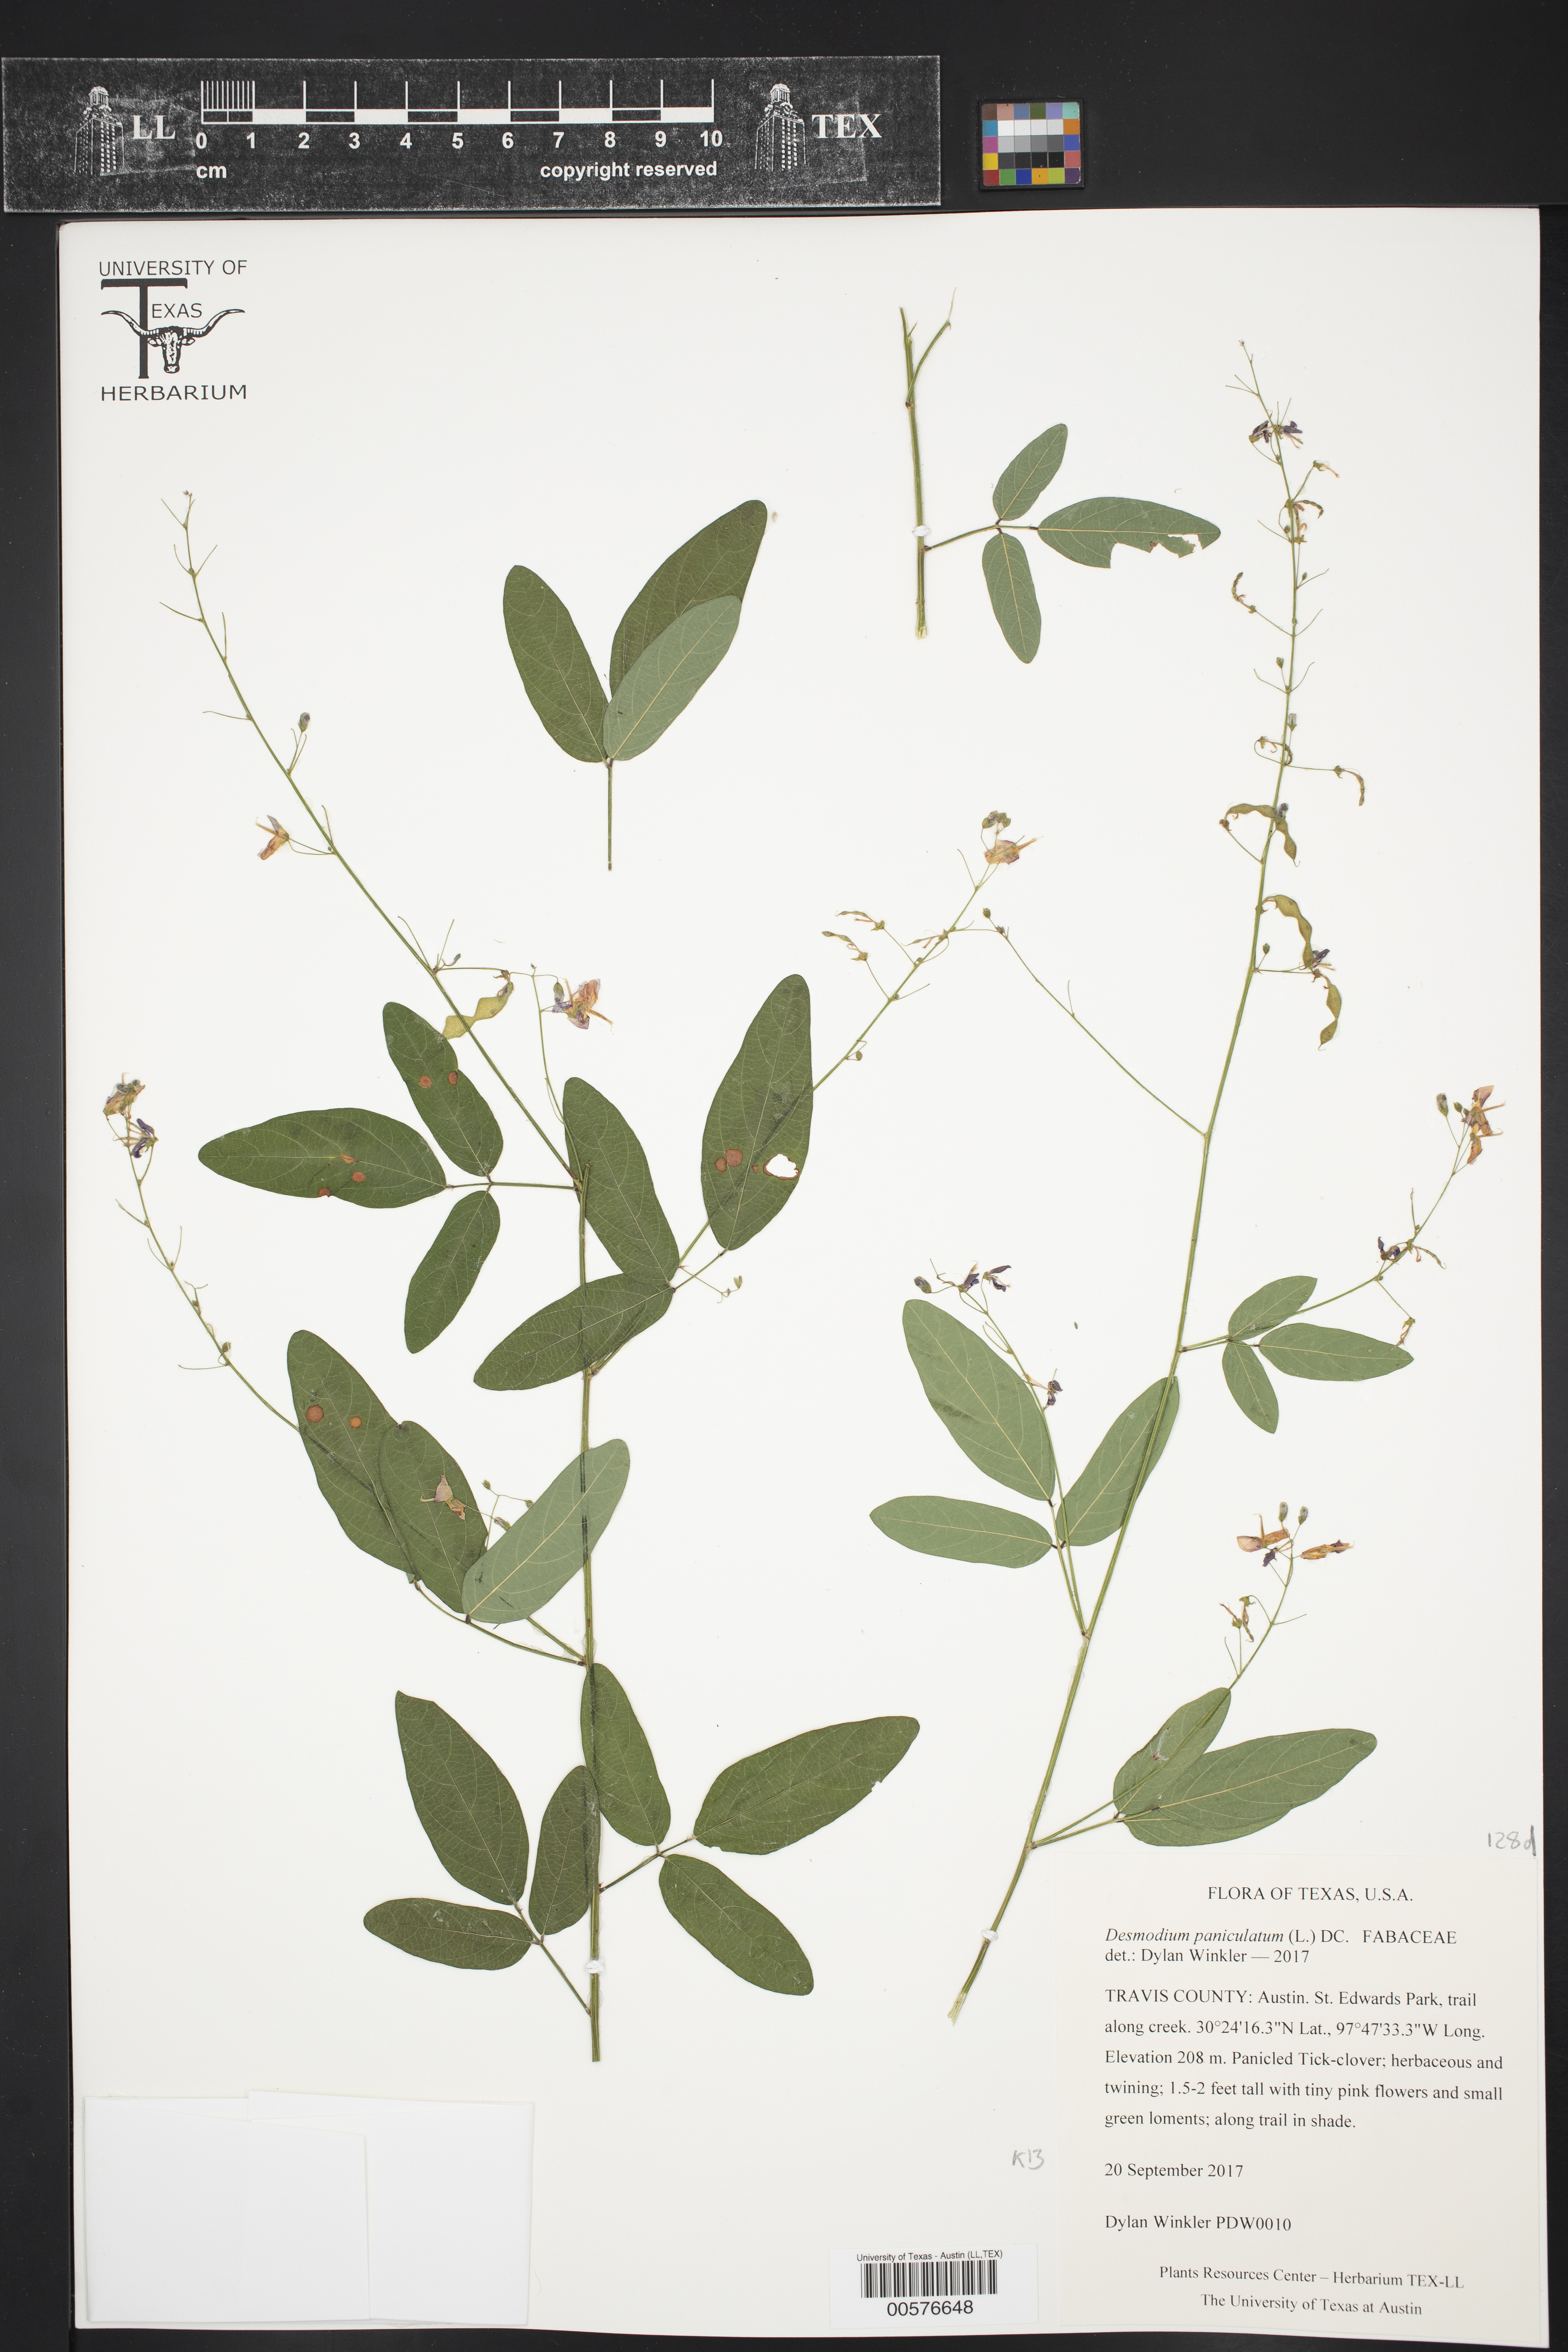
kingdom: Plantae
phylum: Tracheophyta
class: Magnoliopsida
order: Fabales
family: Fabaceae
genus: Desmodium
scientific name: Desmodium paniculatum
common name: Panicled tick-clover
